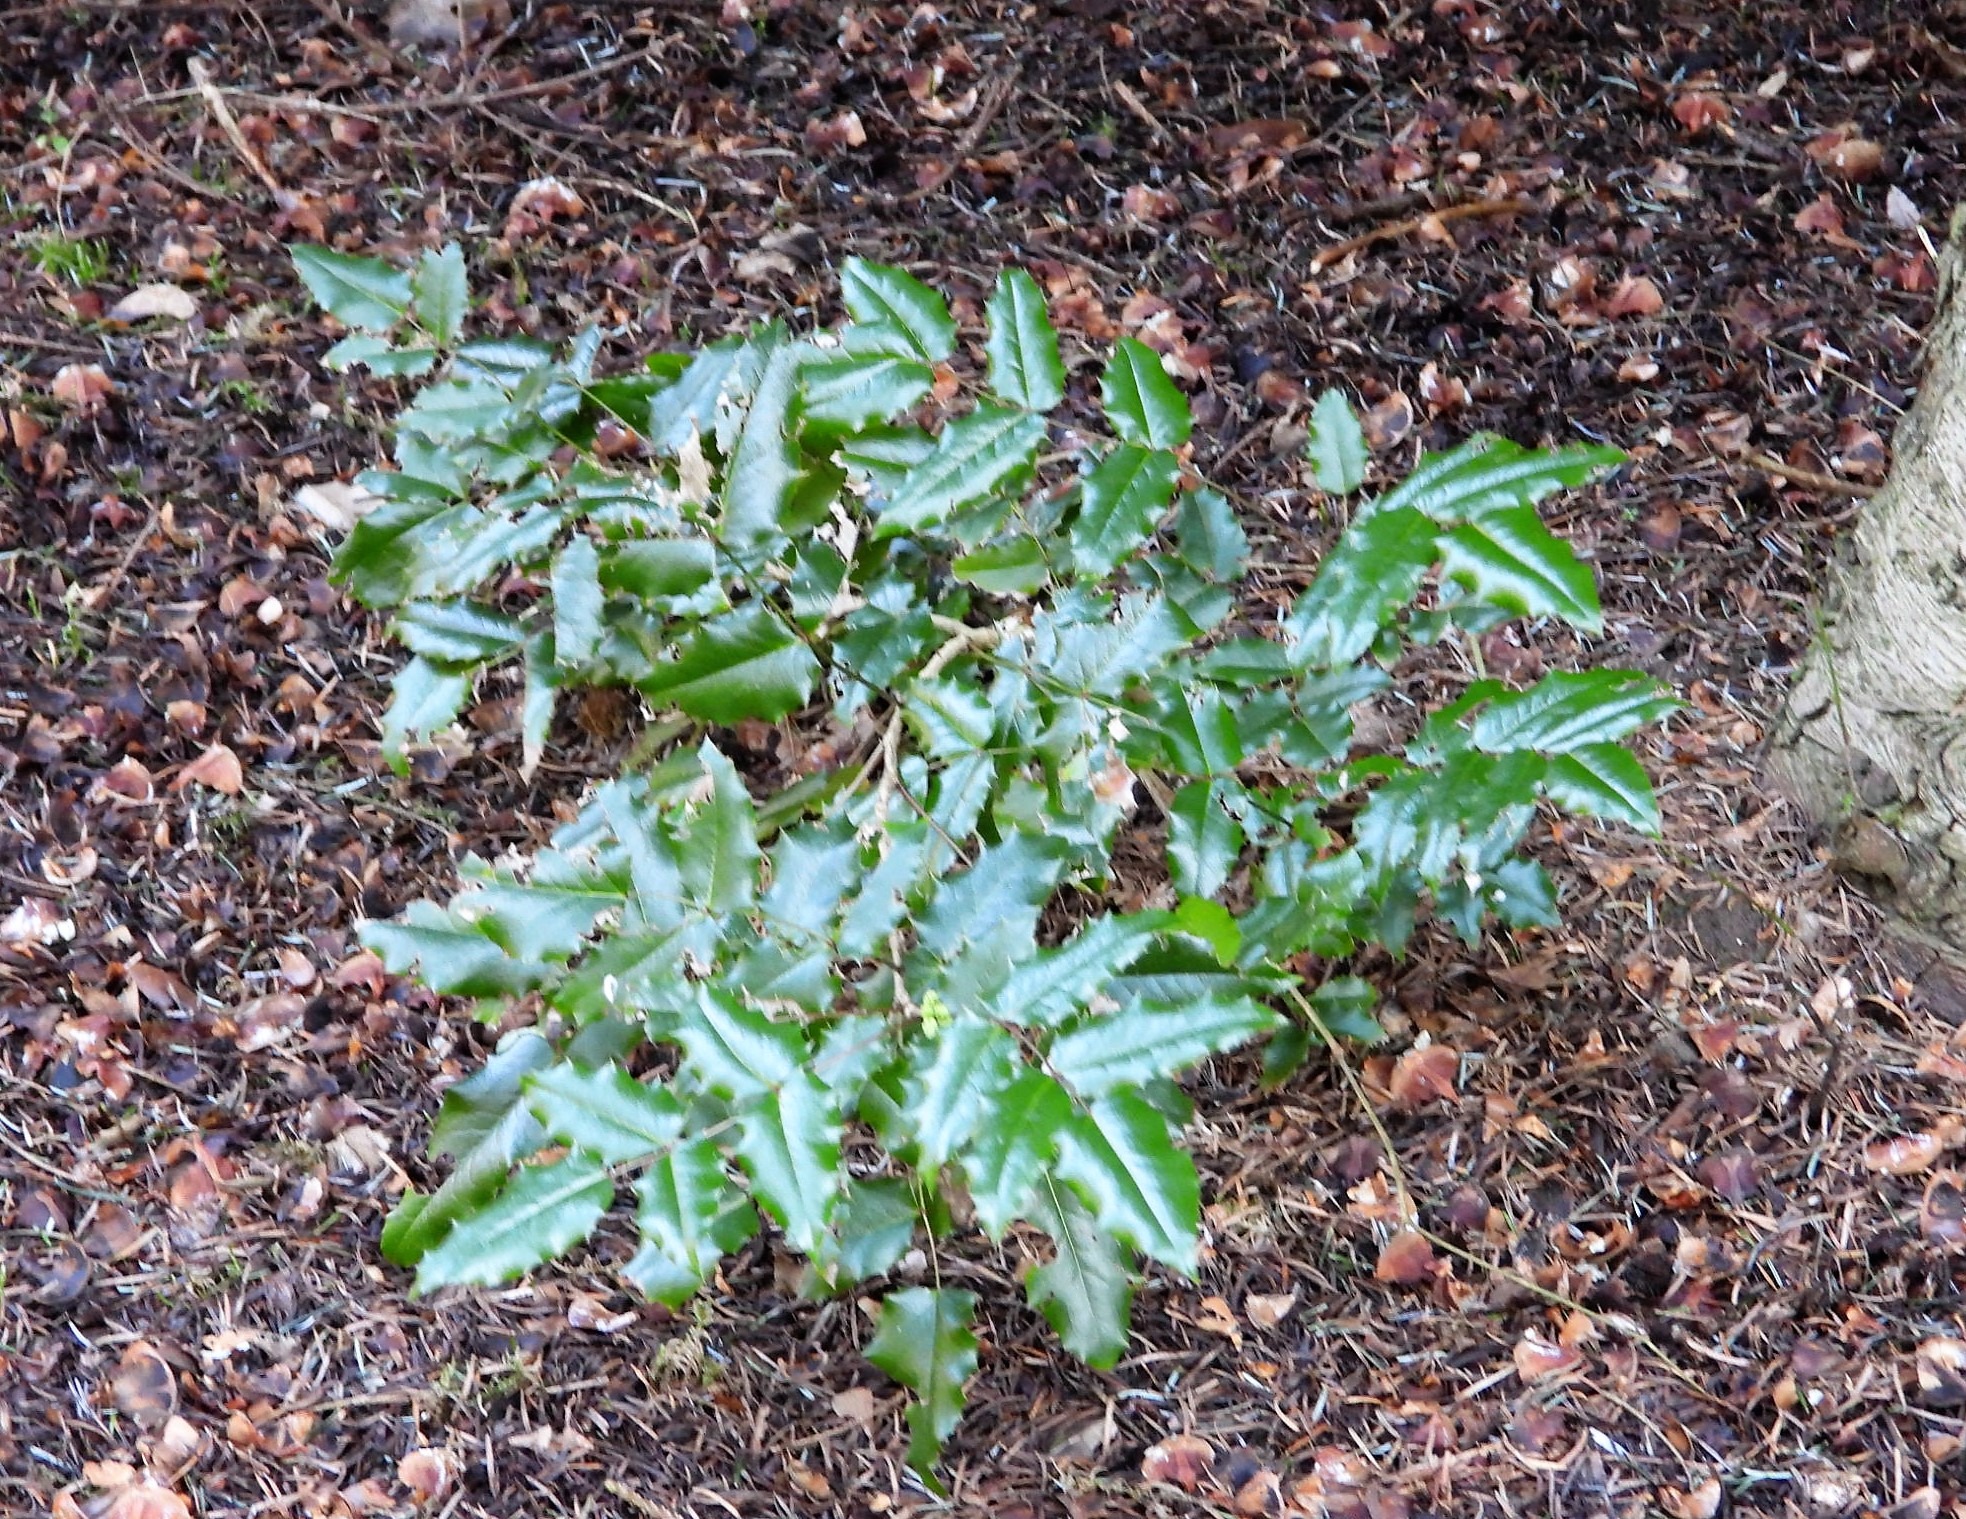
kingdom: Plantae
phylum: Tracheophyta
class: Magnoliopsida
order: Ranunculales
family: Berberidaceae
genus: Mahonia
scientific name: Mahonia aquifolium
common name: Almindelig mahonie
